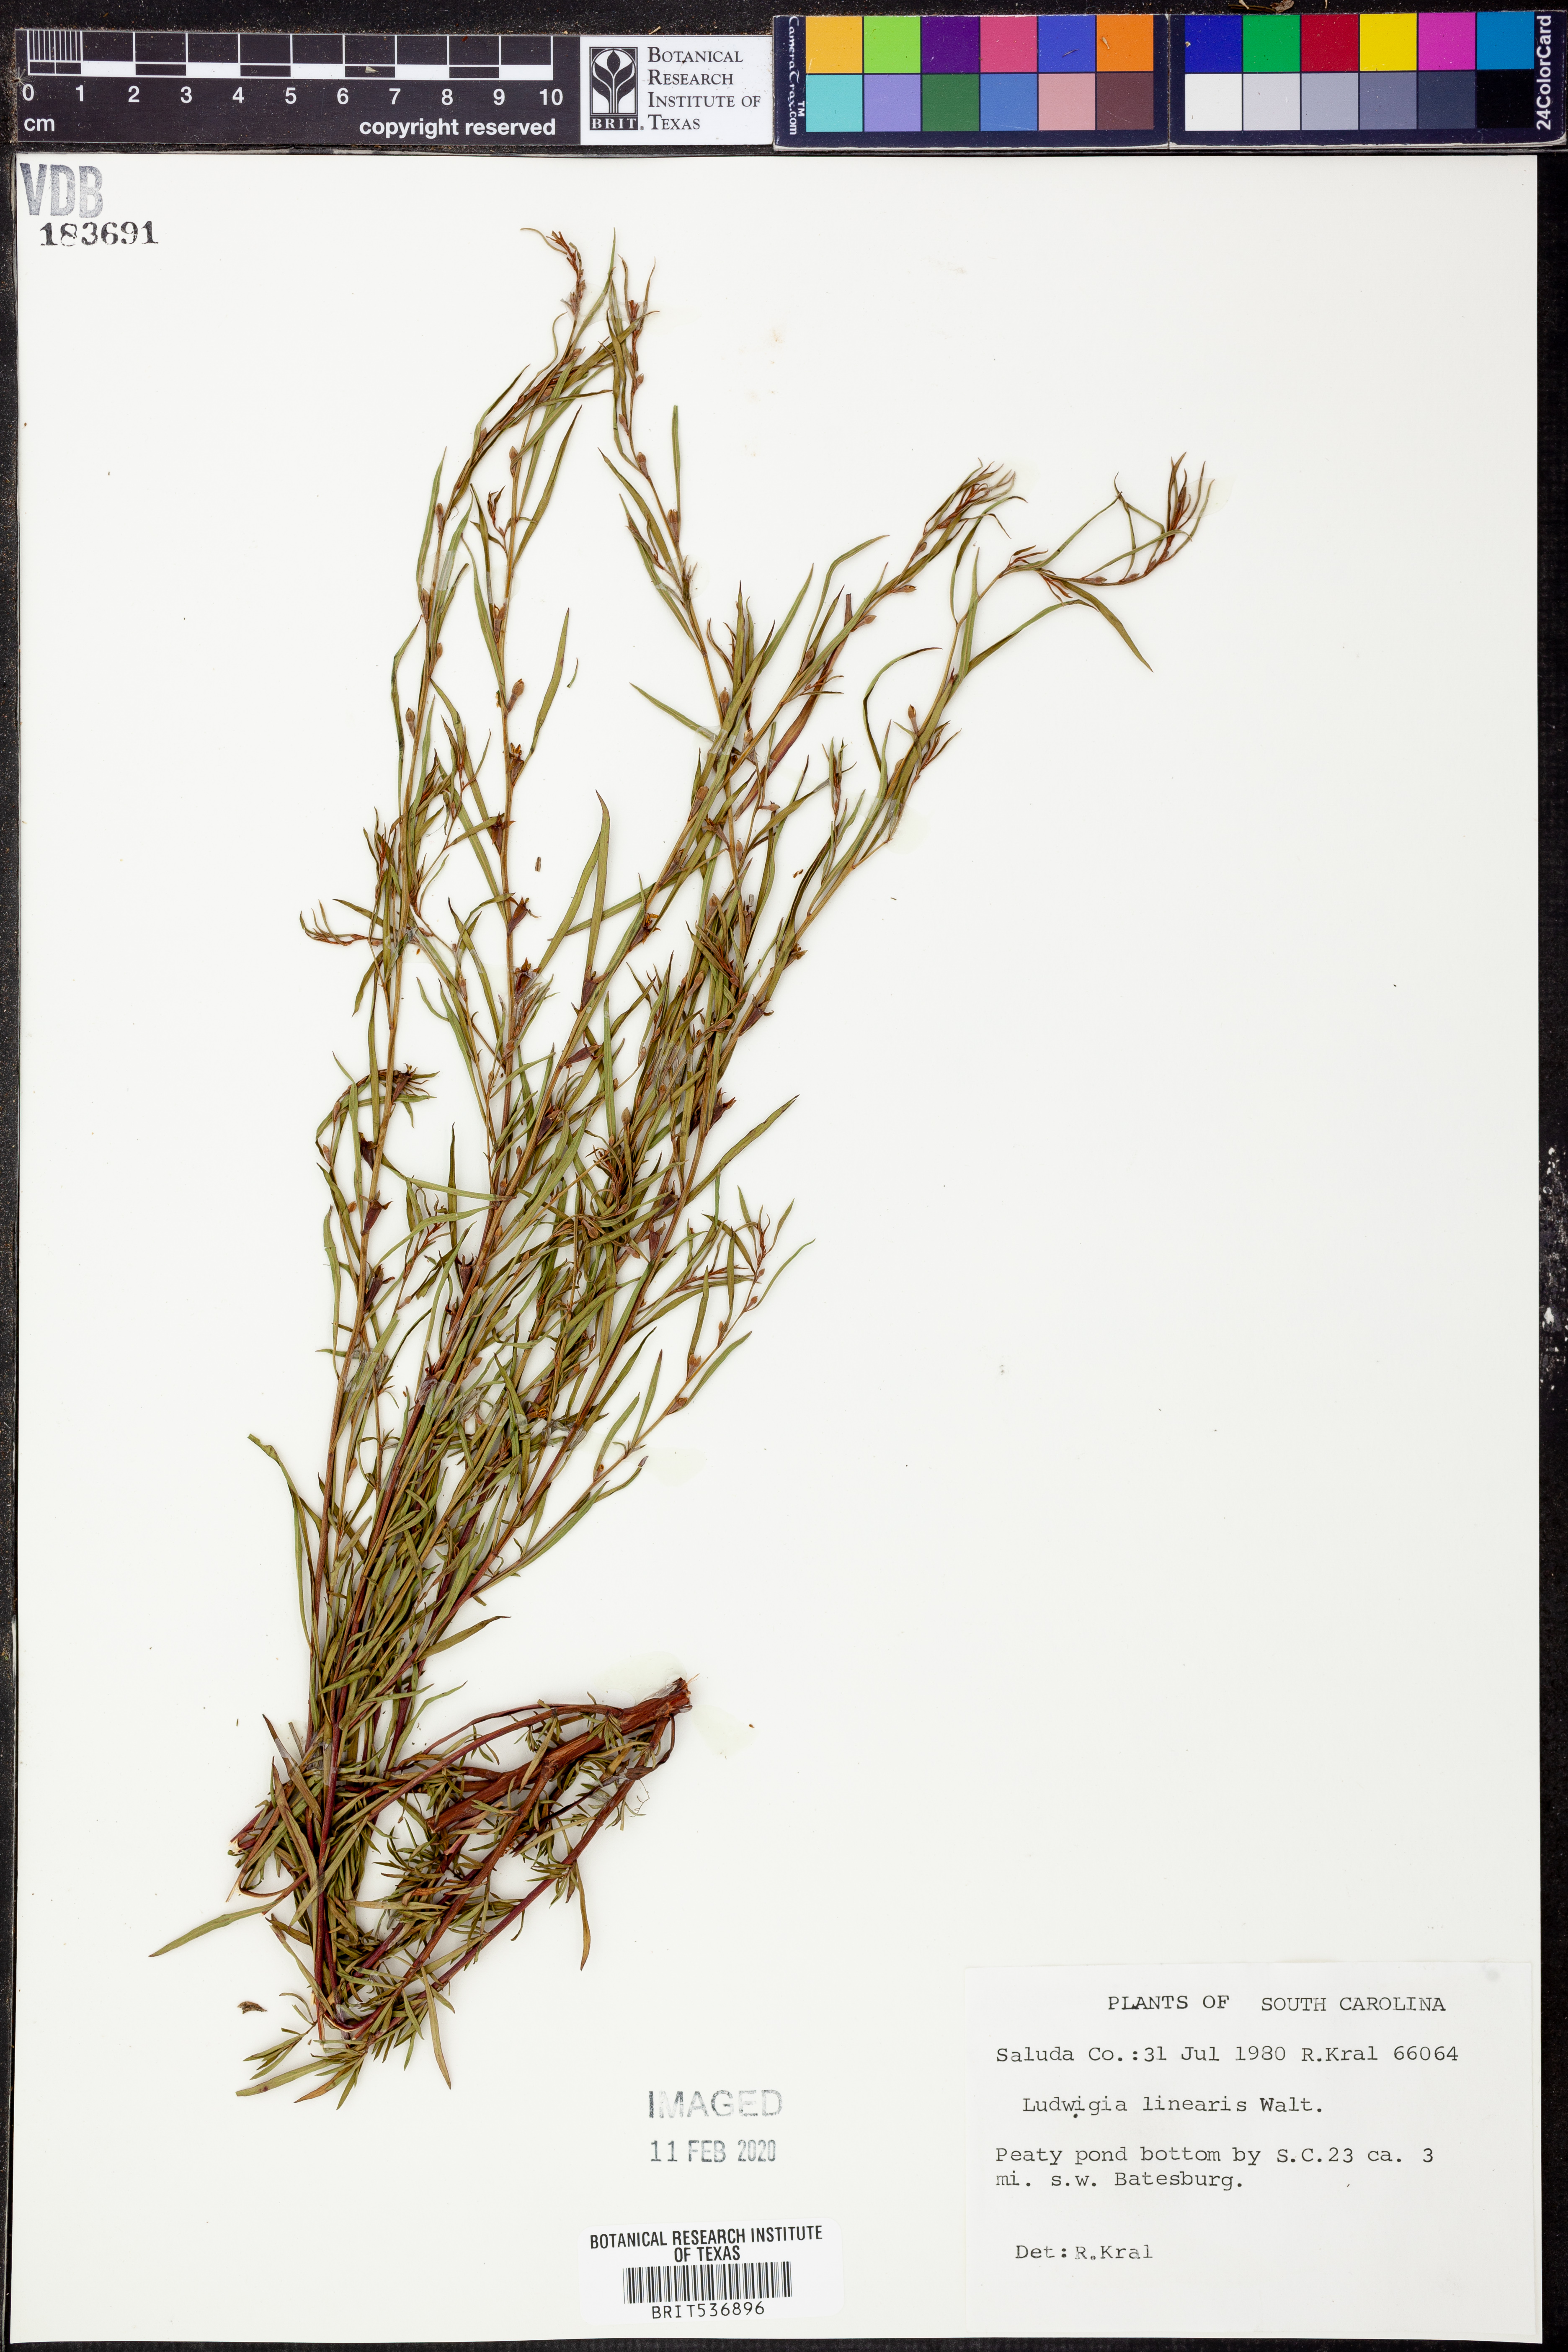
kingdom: Plantae
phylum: Tracheophyta
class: Magnoliopsida
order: Myrtales
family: Onagraceae
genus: Ludwigia
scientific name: Ludwigia linearis
